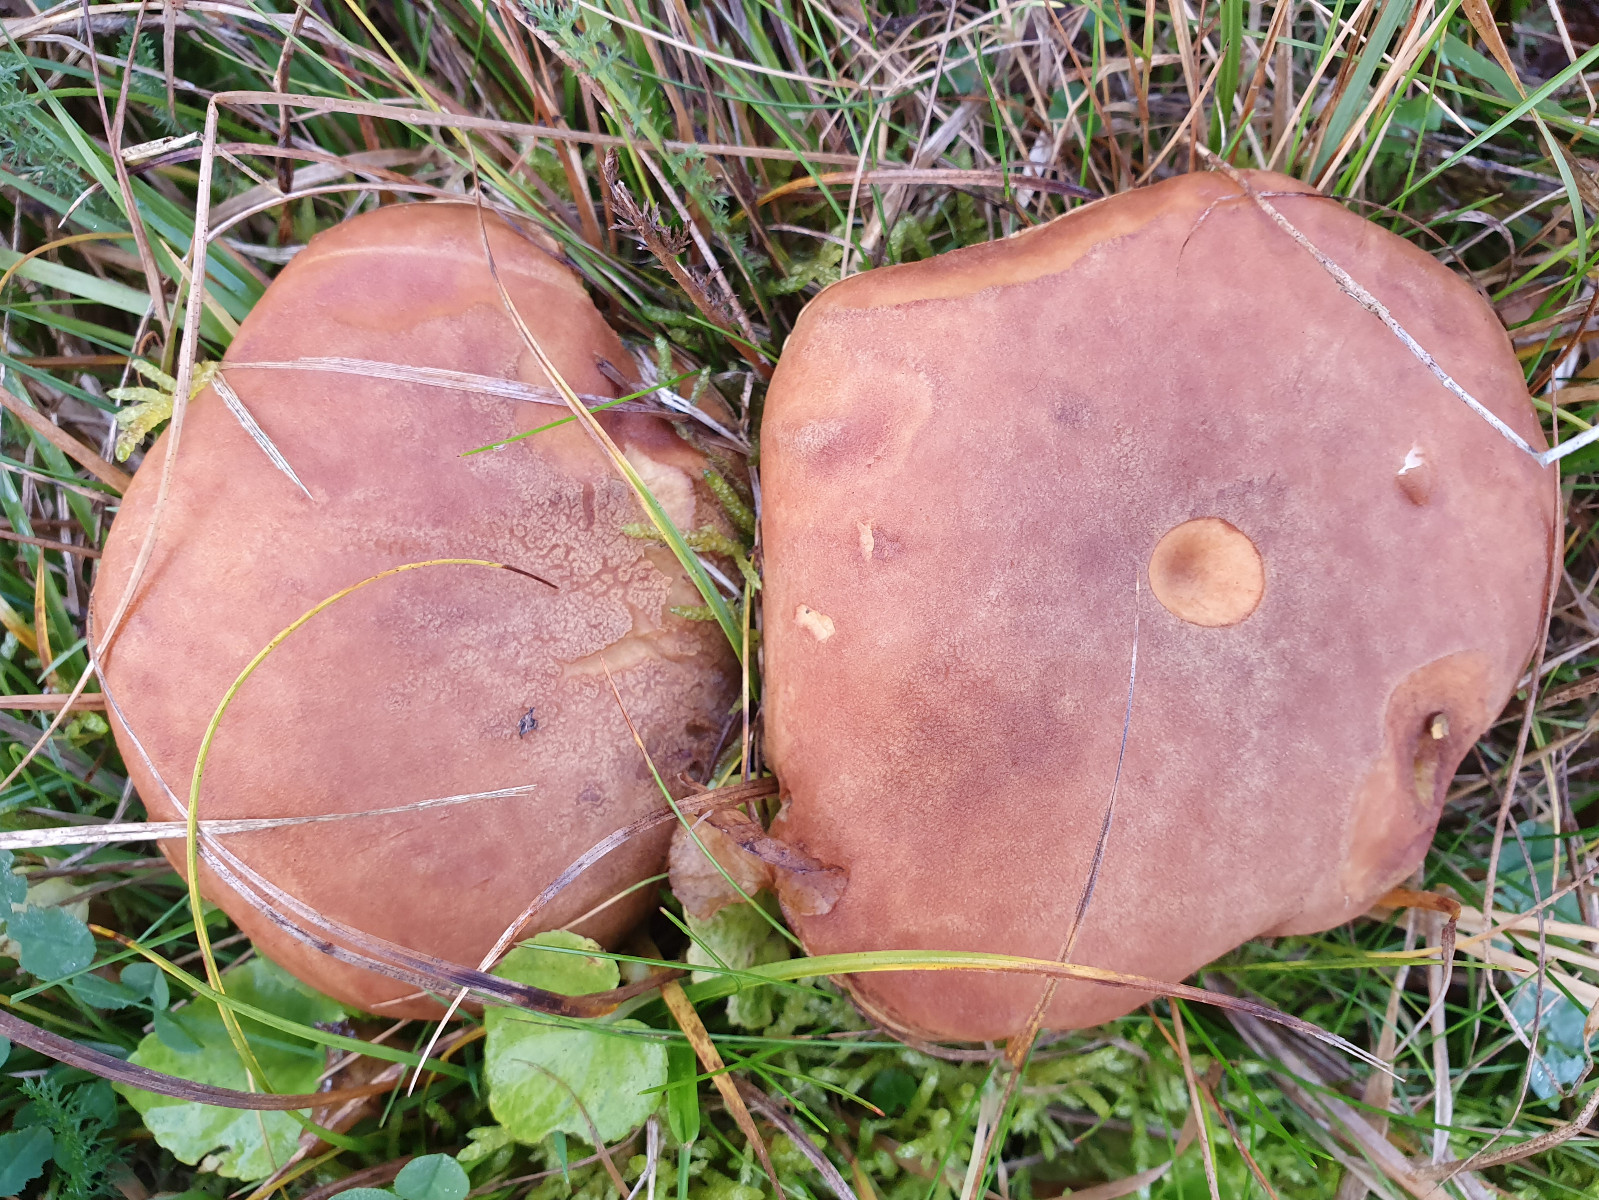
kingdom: Fungi
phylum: Basidiomycota
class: Agaricomycetes
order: Boletales
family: Boletaceae
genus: Xerocomus
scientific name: Xerocomus ferrugineus
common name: vaskeskinds-rørhat
